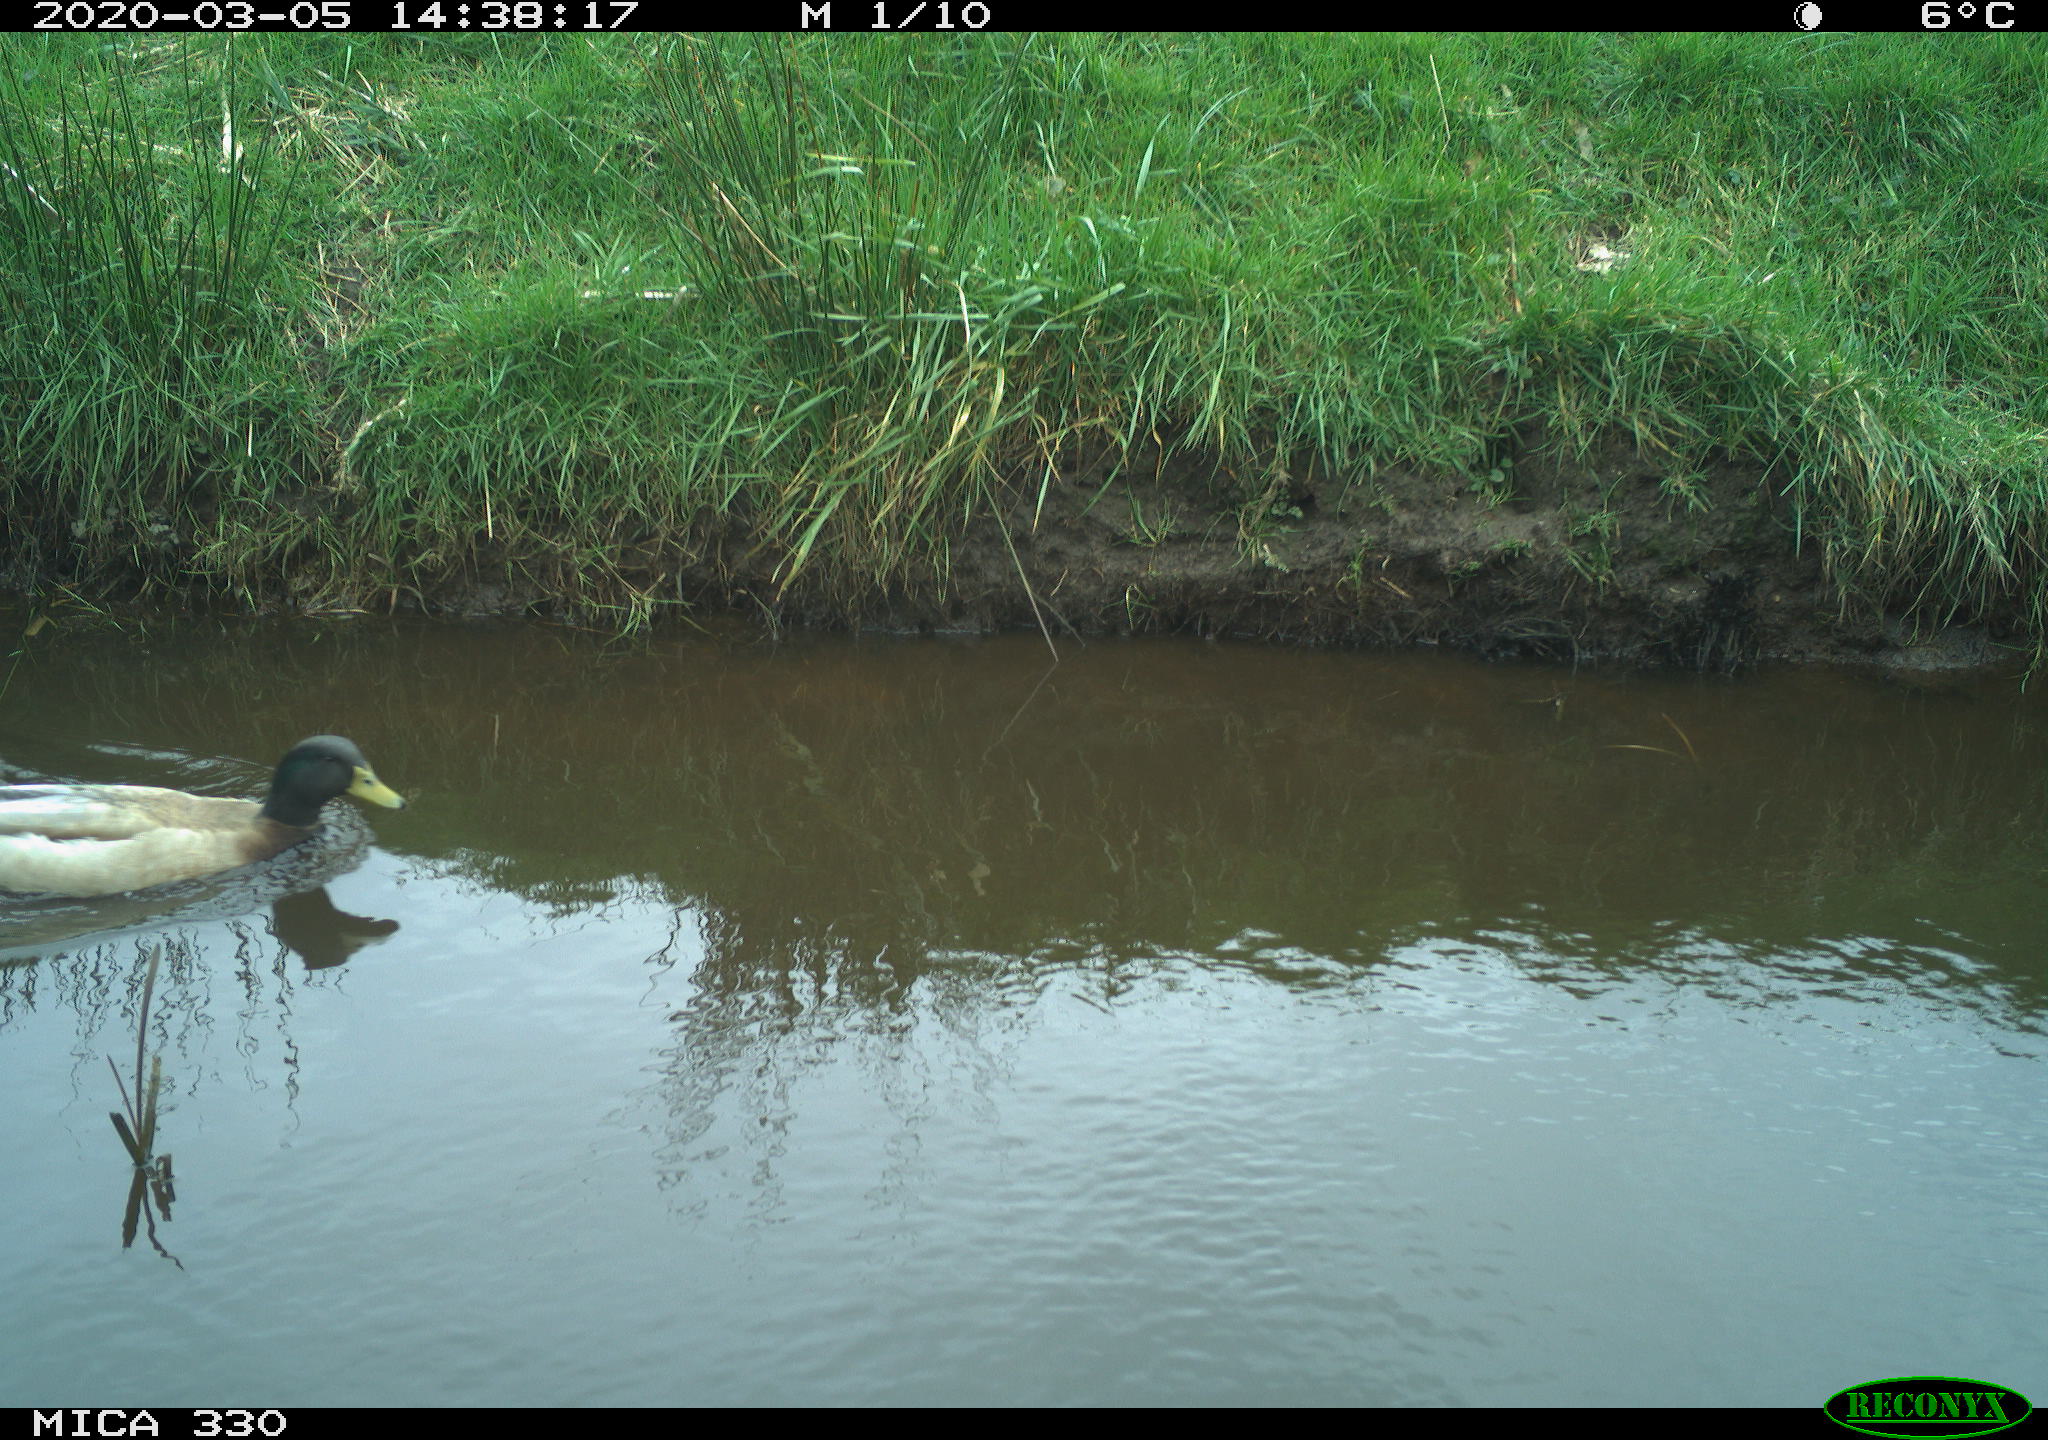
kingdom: Animalia
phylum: Chordata
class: Aves
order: Anseriformes
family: Anatidae
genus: Anas
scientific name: Anas platyrhynchos
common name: Mallard
